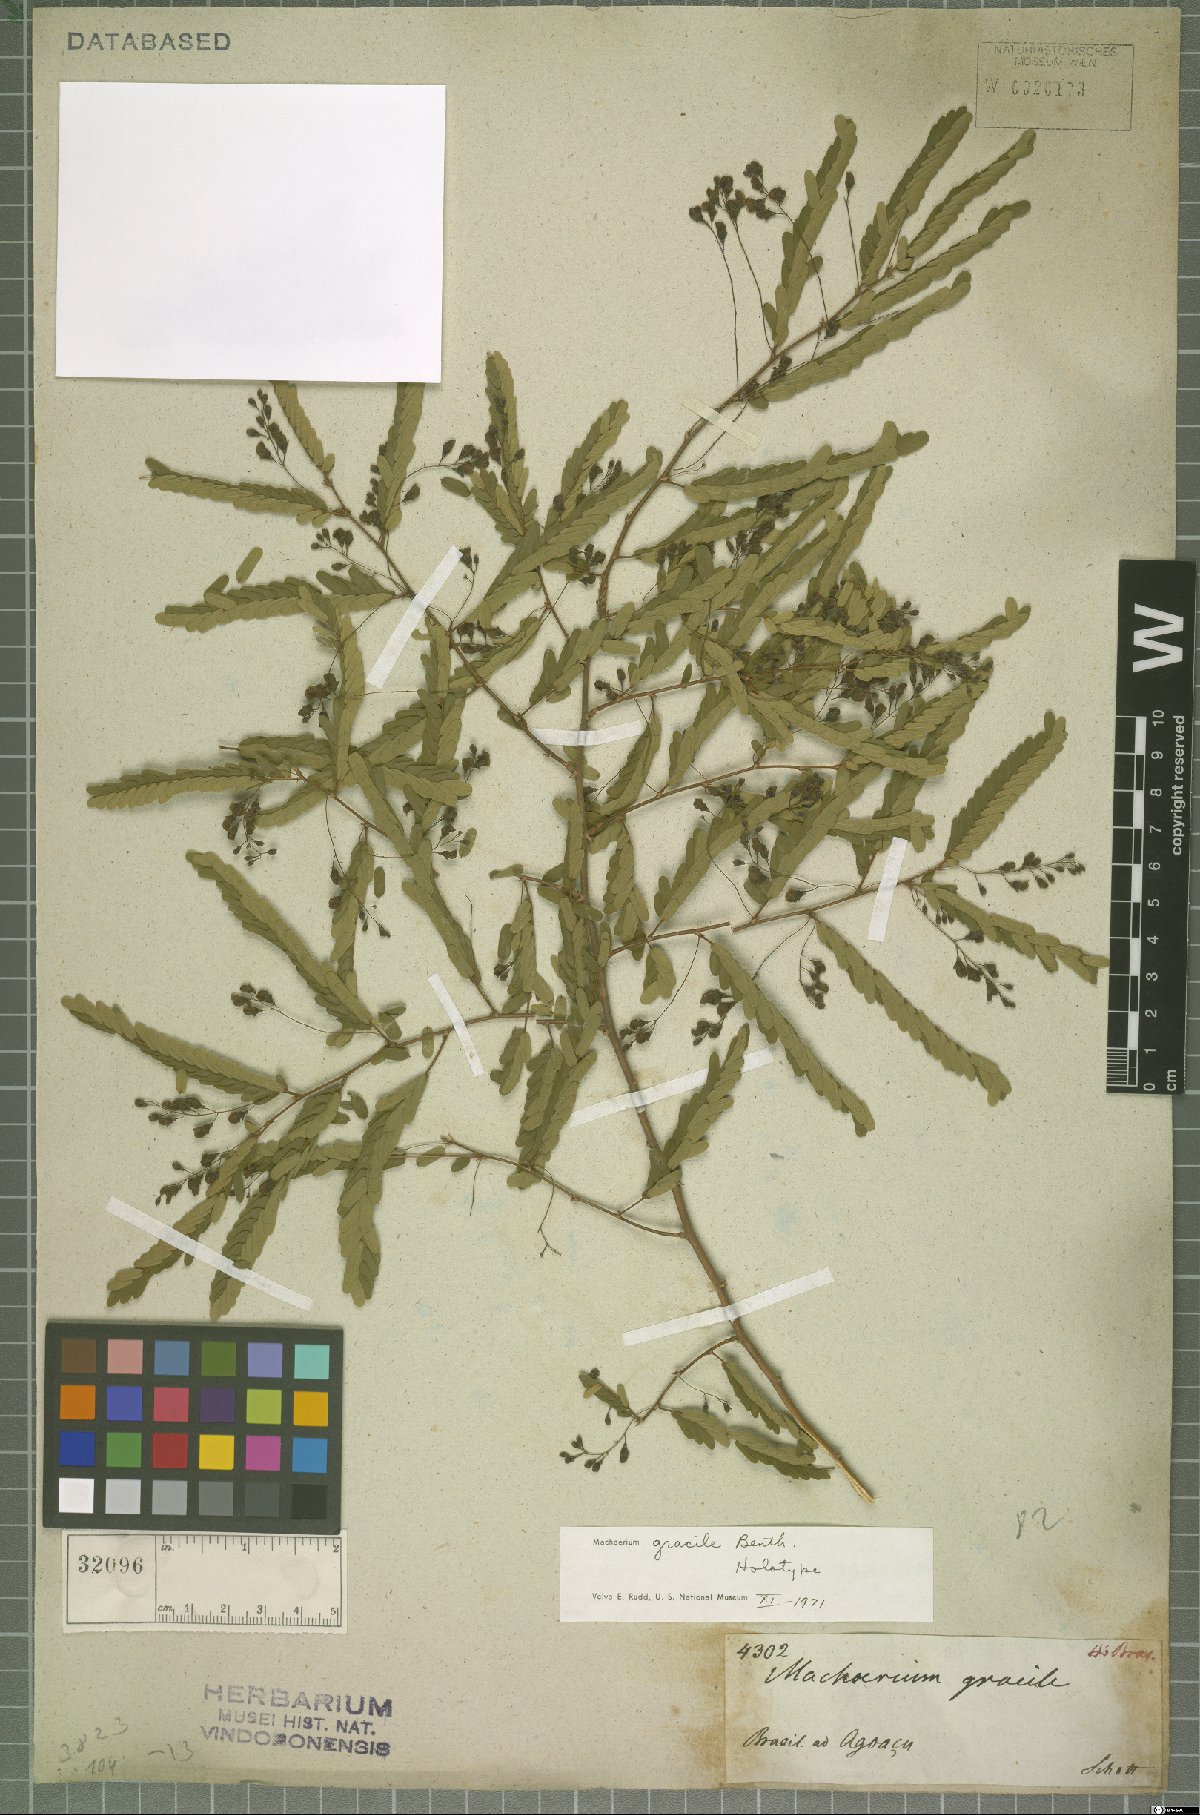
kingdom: Plantae
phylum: Tracheophyta
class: Magnoliopsida
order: Fabales
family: Fabaceae
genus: Machaerium
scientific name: Machaerium gracile
